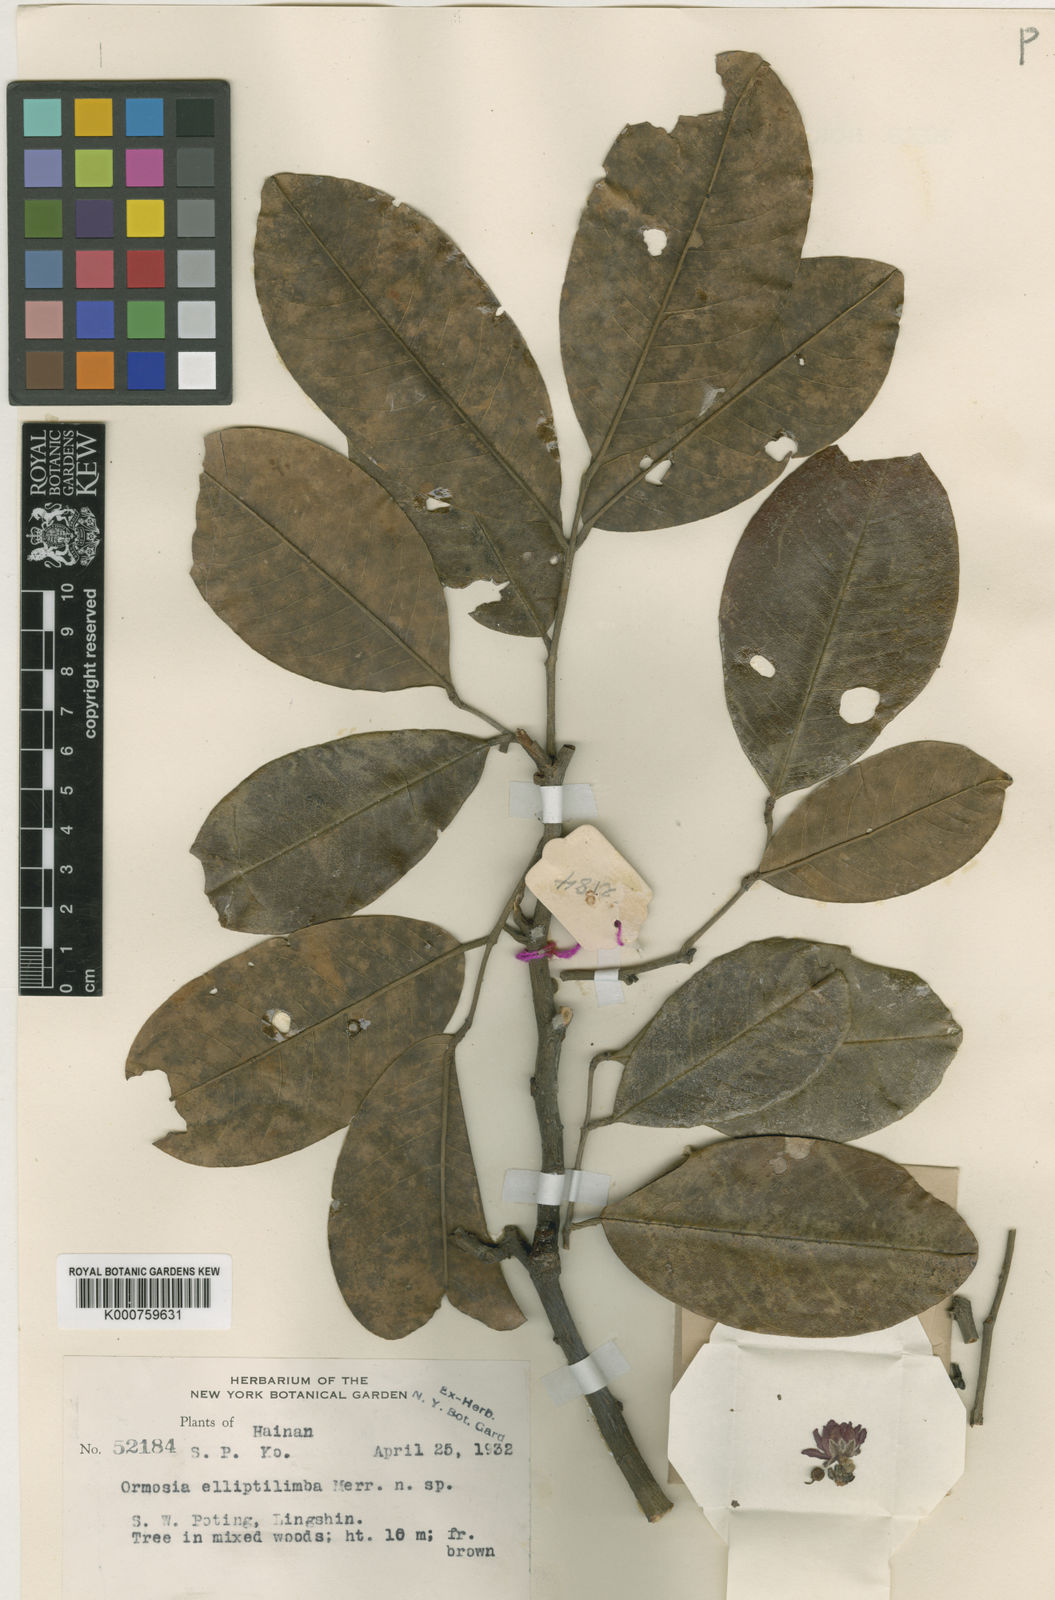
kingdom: Plantae
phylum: Tracheophyta
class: Magnoliopsida
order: Fabales
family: Fabaceae
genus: Ormosia
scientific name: Ormosia balansae
